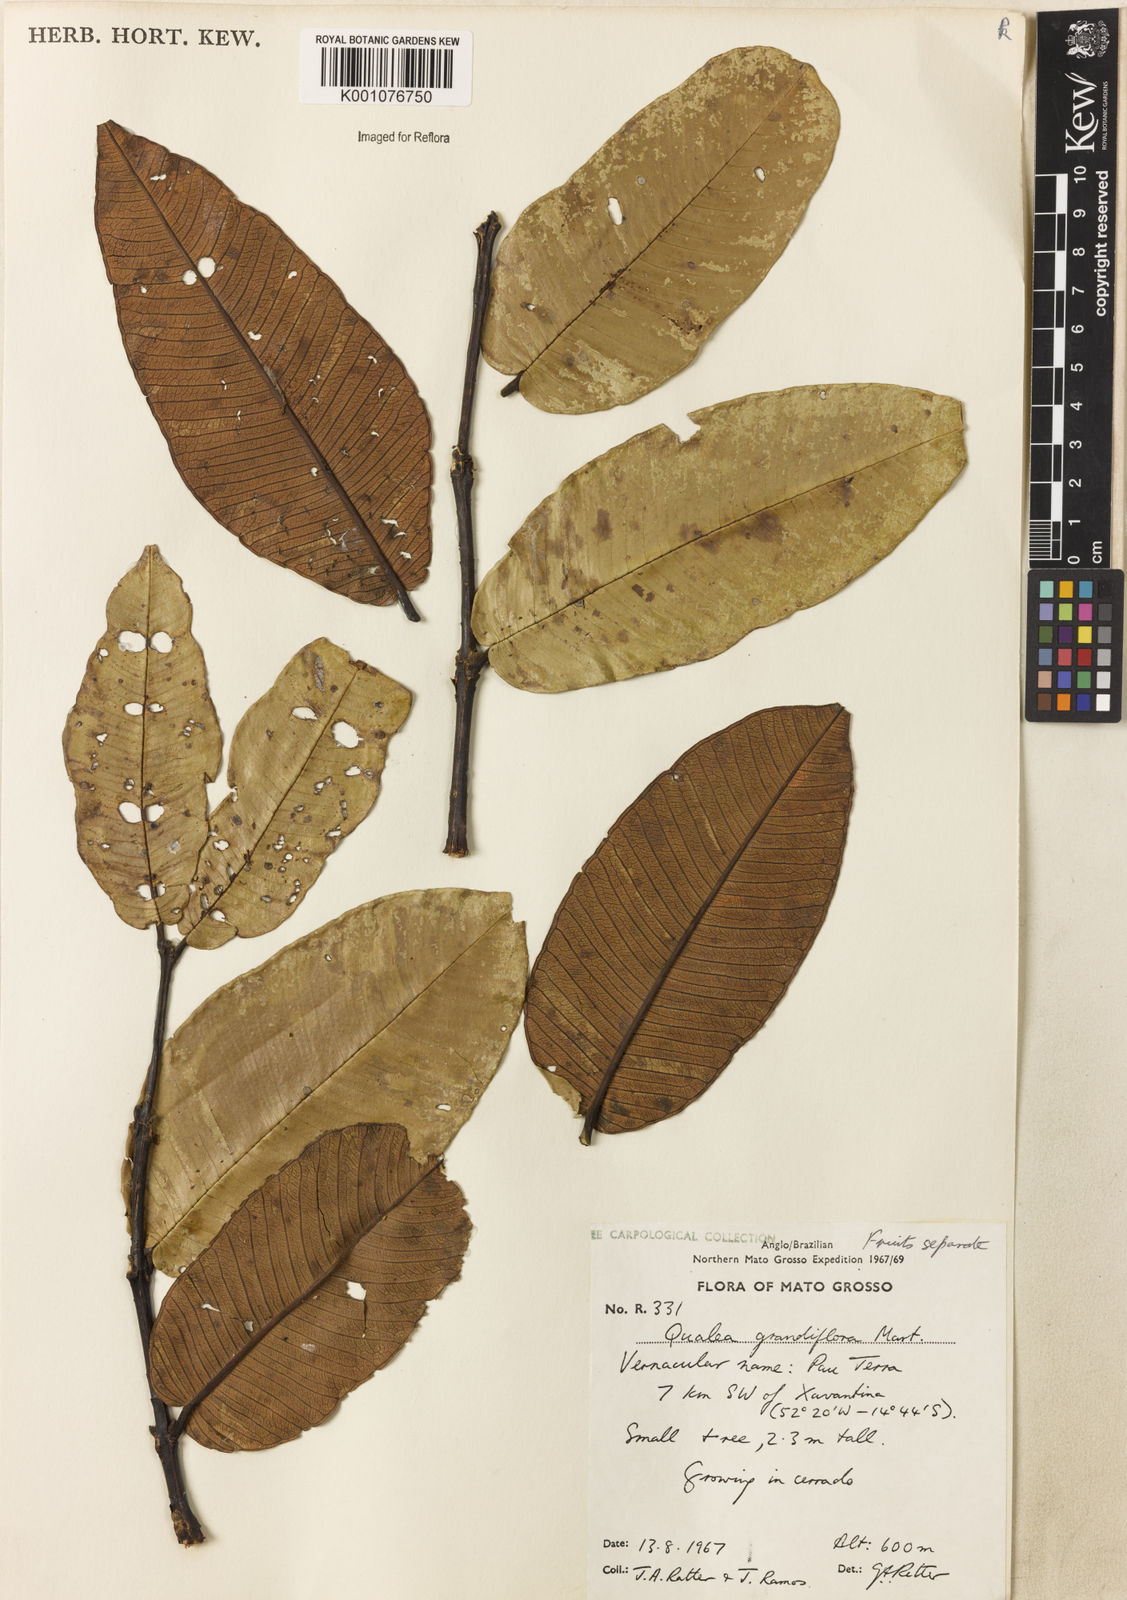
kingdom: Plantae
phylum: Tracheophyta
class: Magnoliopsida
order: Myrtales
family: Vochysiaceae
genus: Qualea
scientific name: Qualea grandiflora
